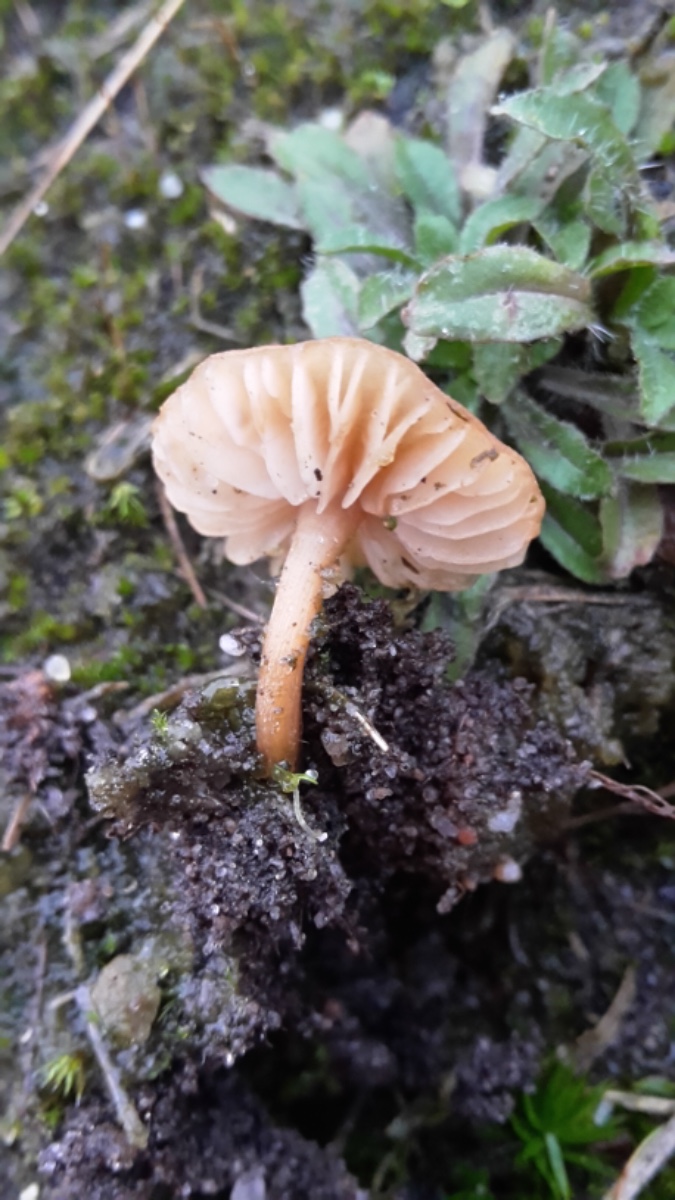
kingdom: Fungi
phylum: Basidiomycota
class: Agaricomycetes
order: Agaricales
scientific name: Agaricales
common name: champignonordenen
